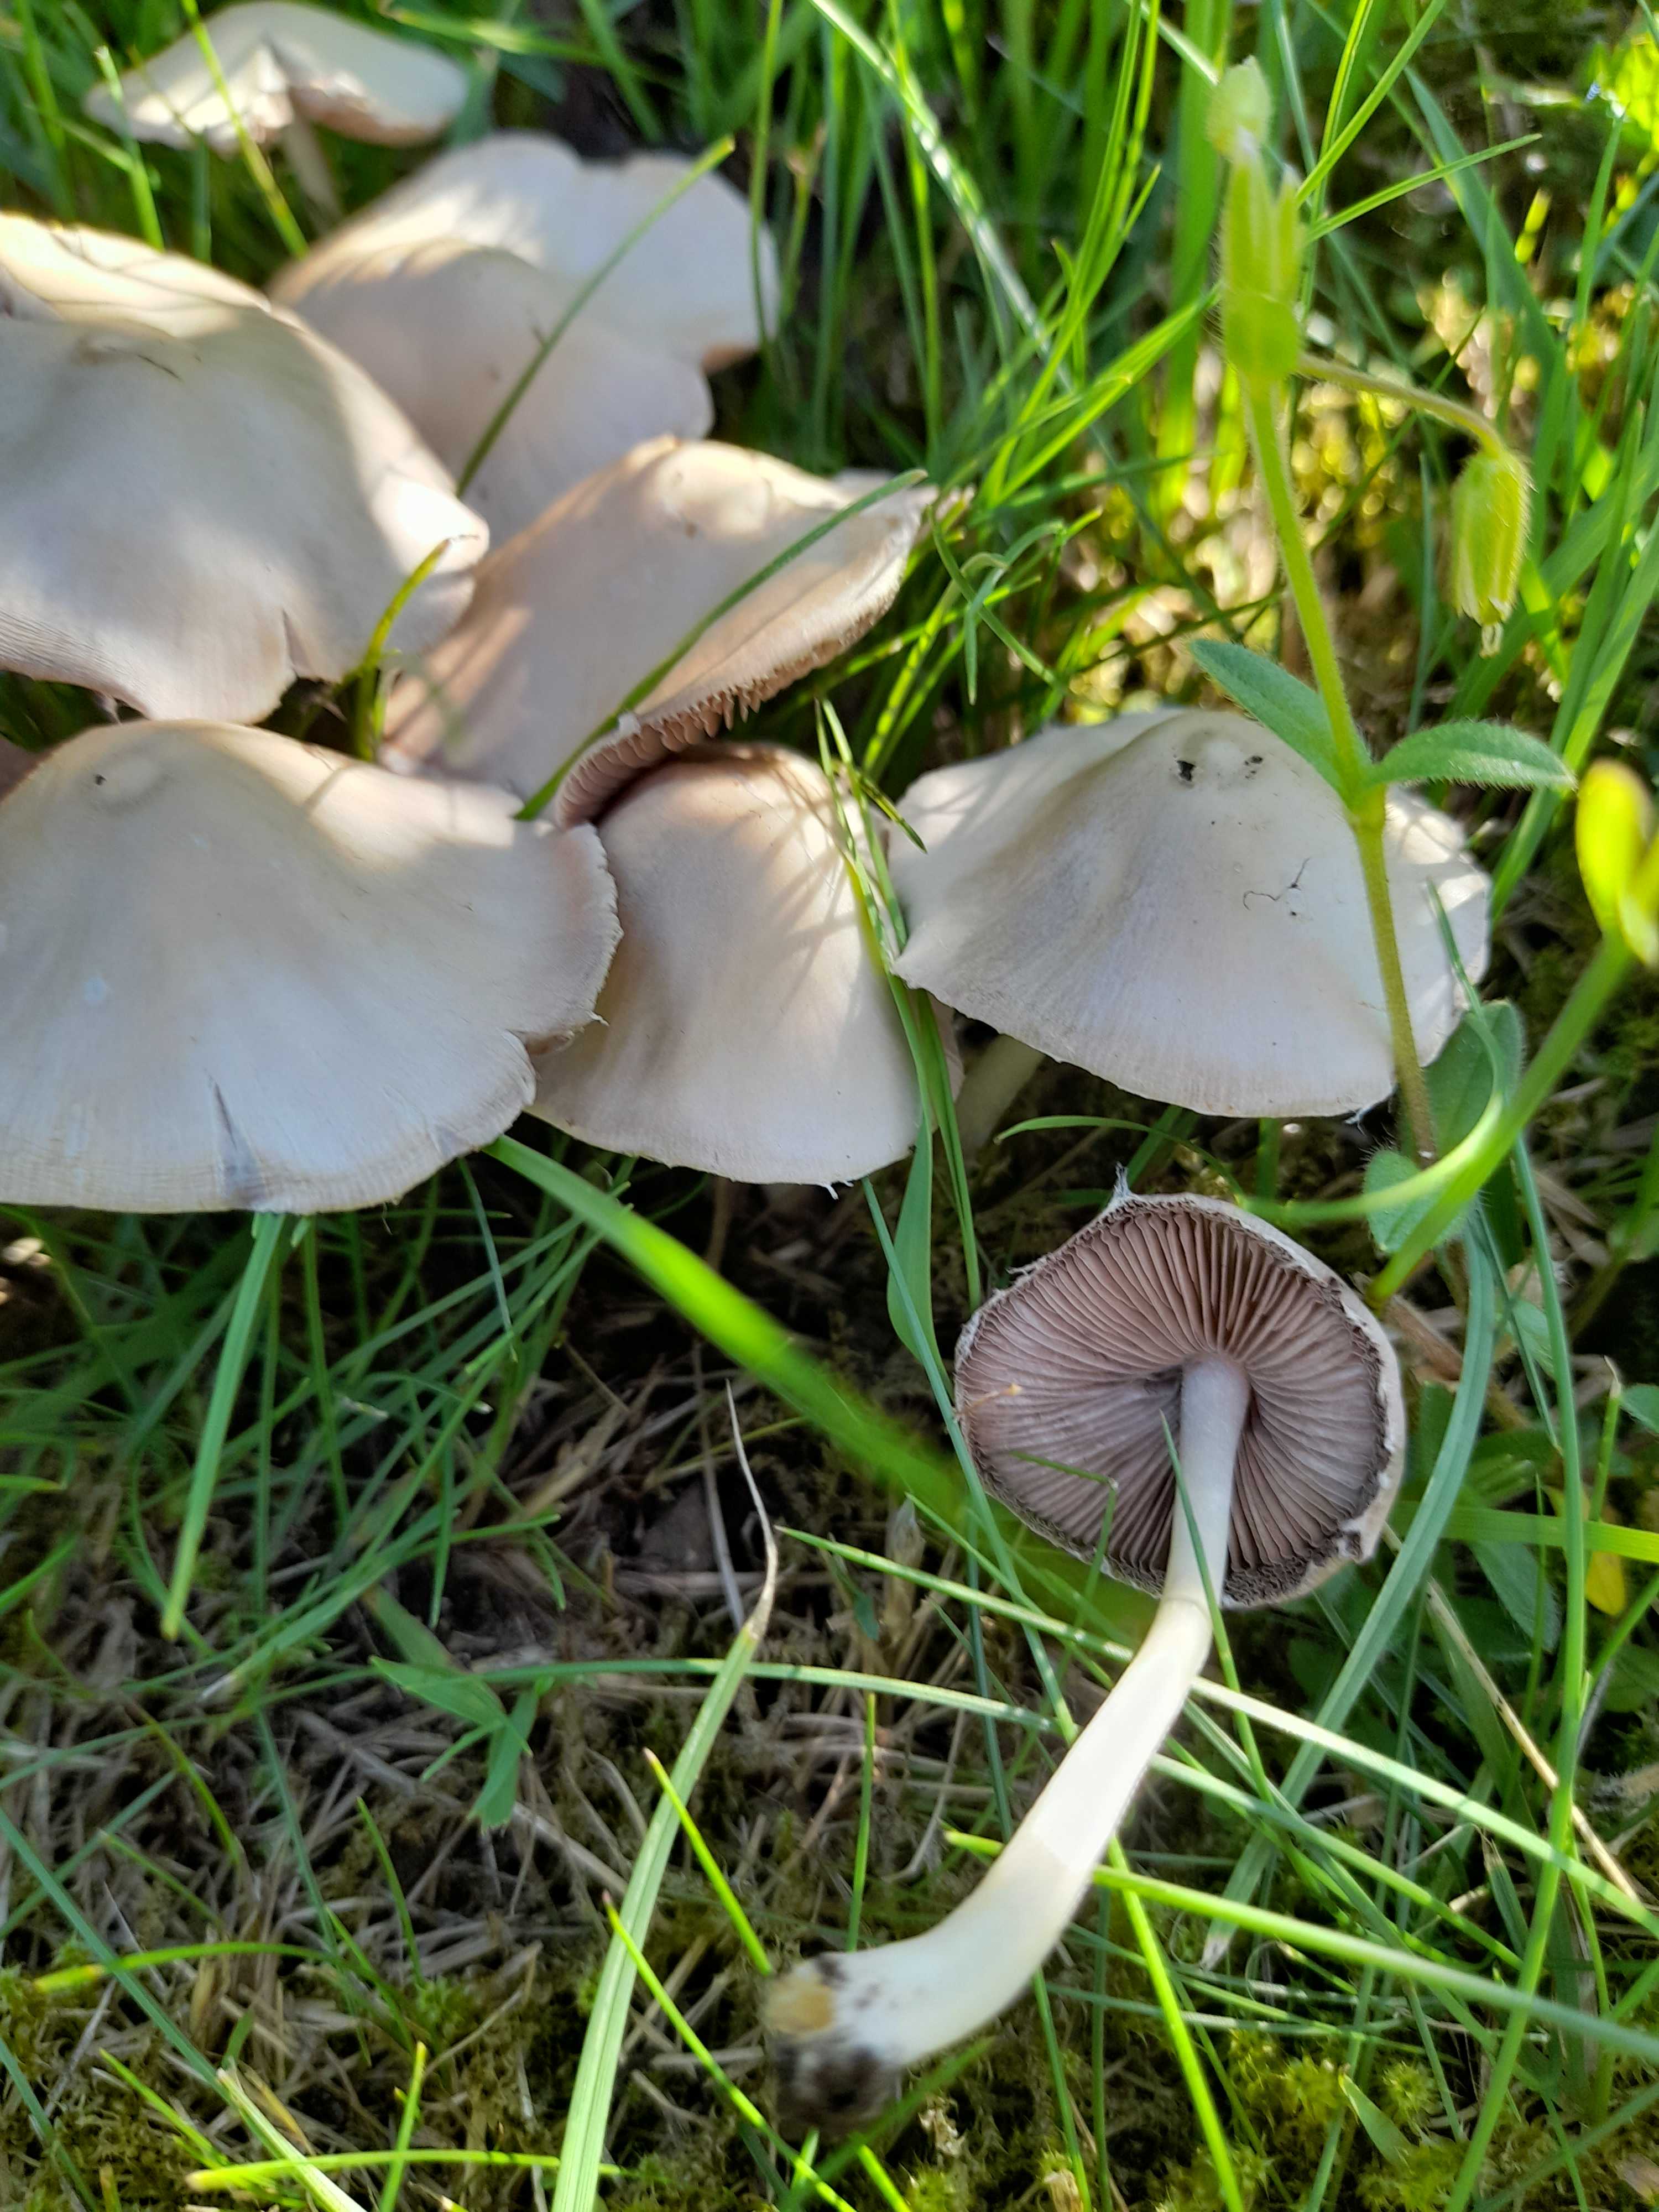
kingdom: Fungi
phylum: Basidiomycota
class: Agaricomycetes
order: Agaricales
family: Psathyrellaceae
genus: Candolleomyces
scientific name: Candolleomyces candolleanus
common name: Candolles mørkhat
